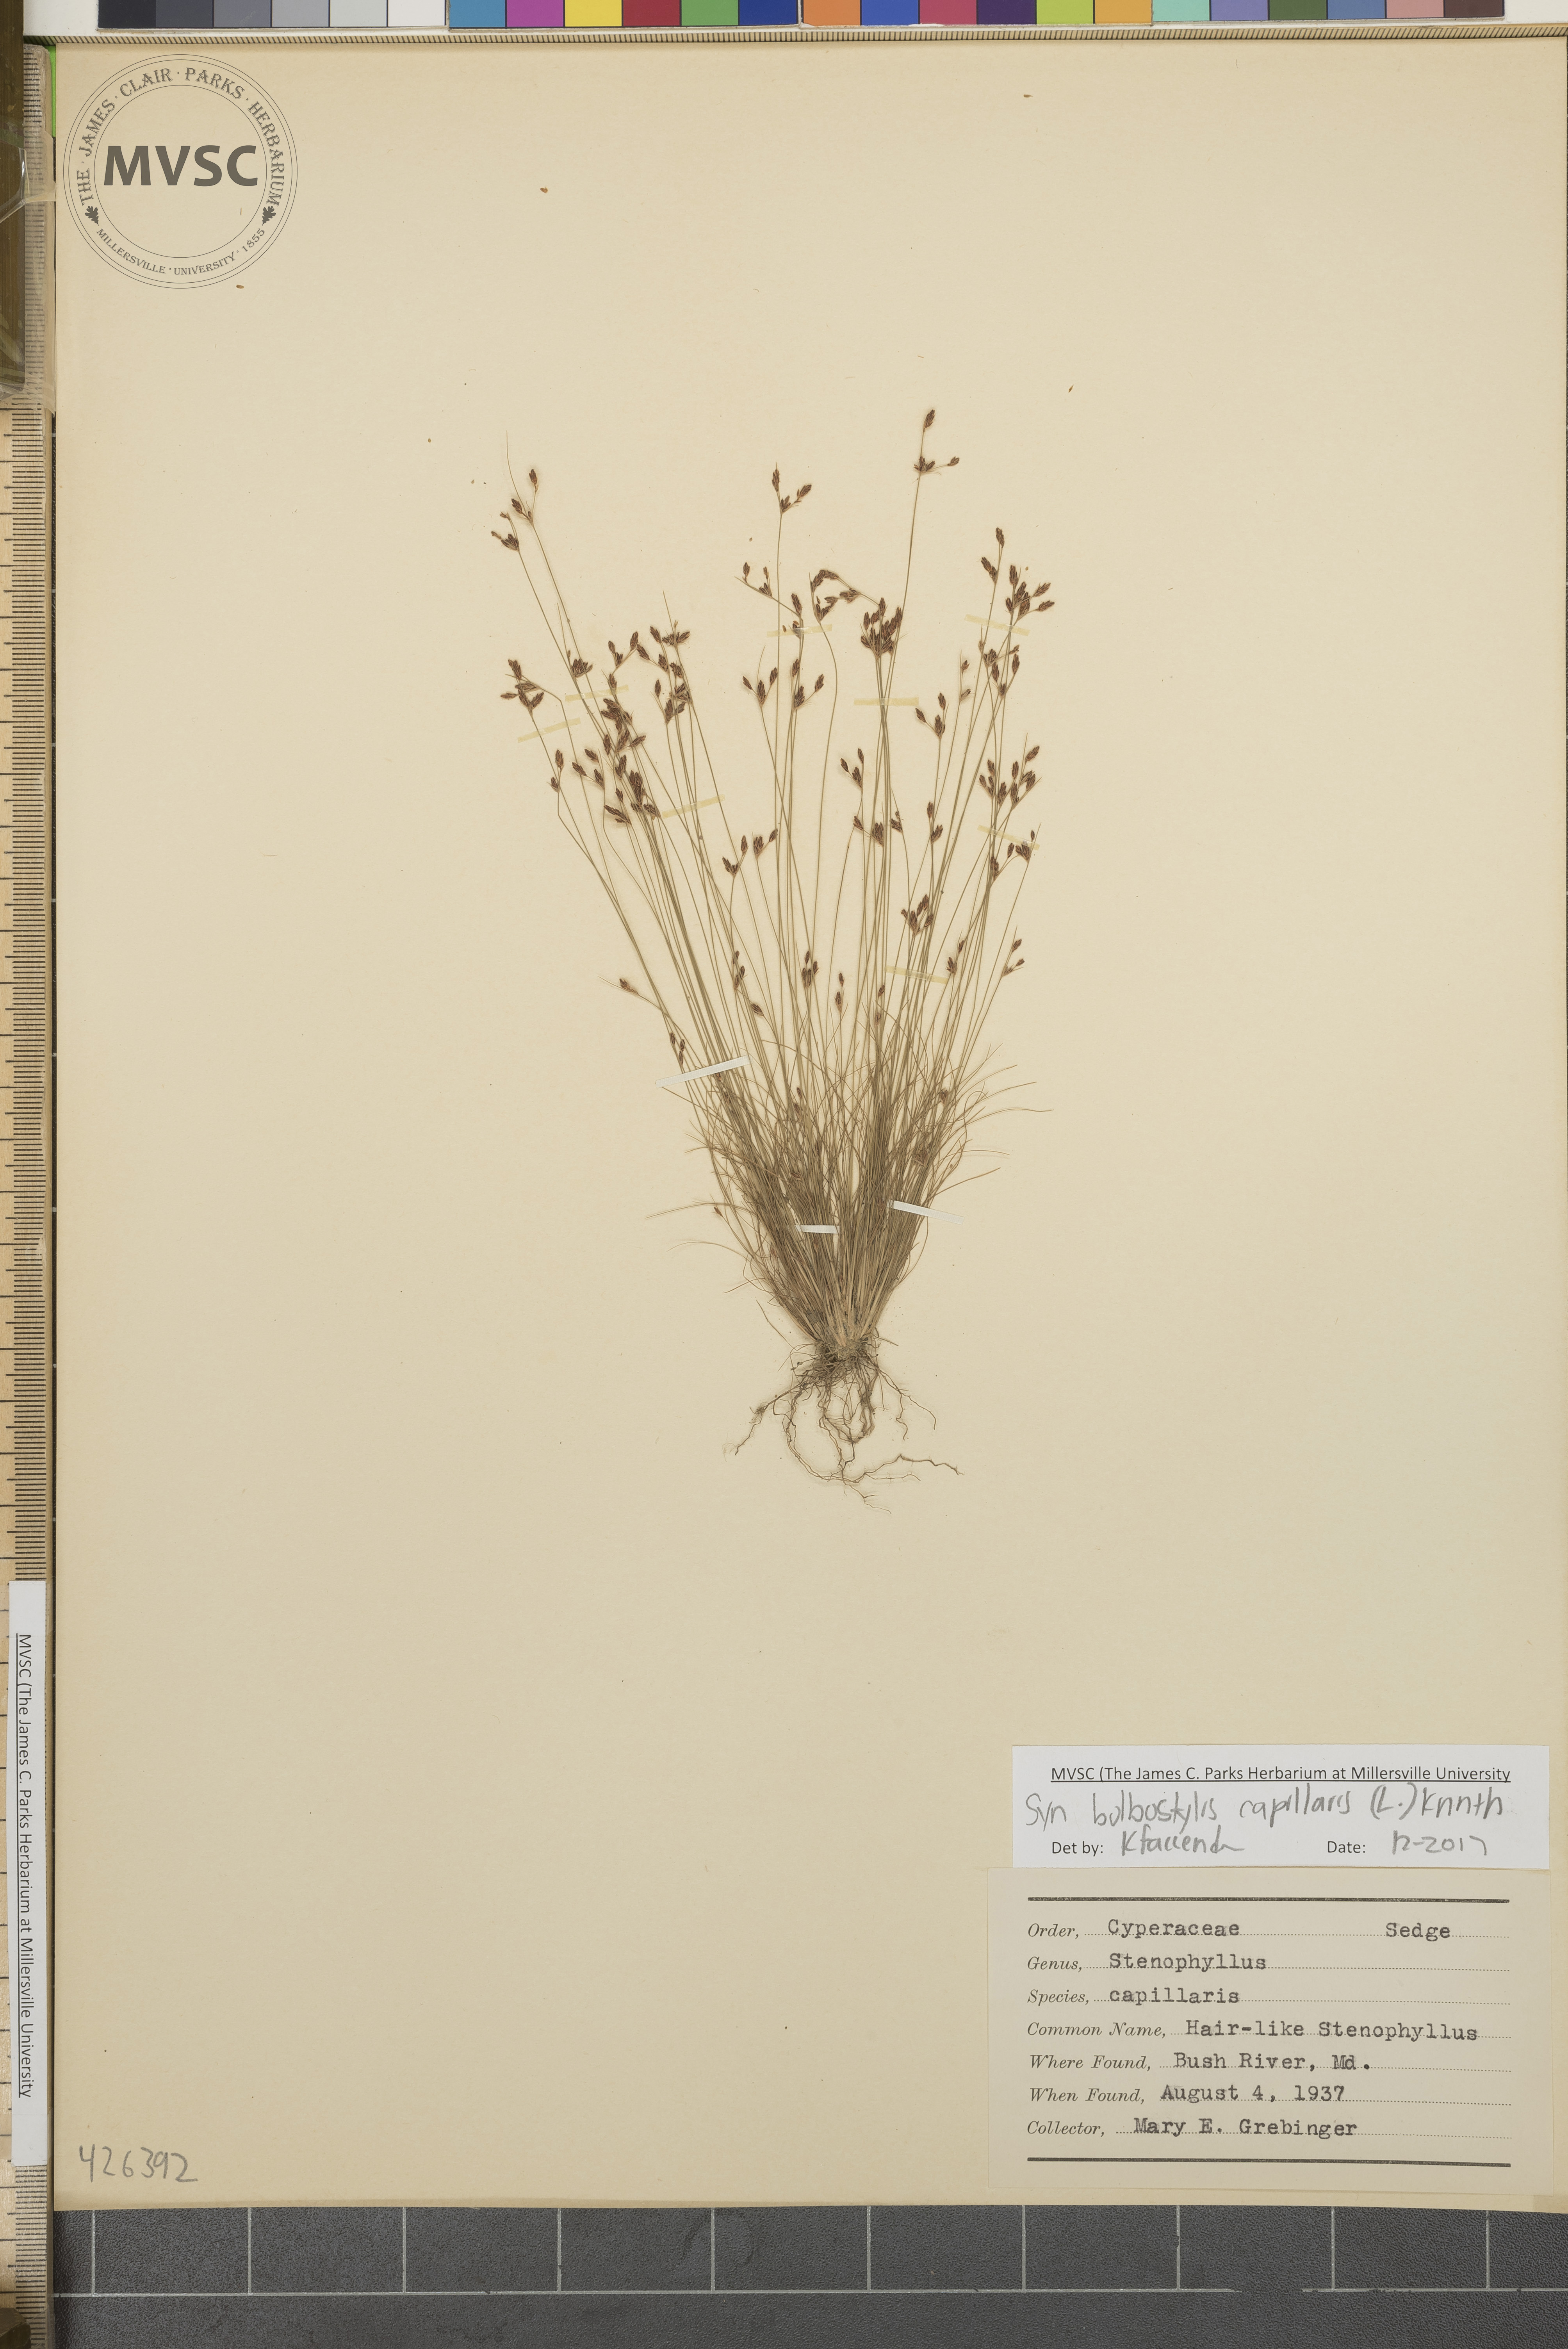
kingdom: Plantae
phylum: Tracheophyta
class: Liliopsida
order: Poales
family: Cyperaceae
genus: Bulbostylis
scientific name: Bulbostylis capillaris
